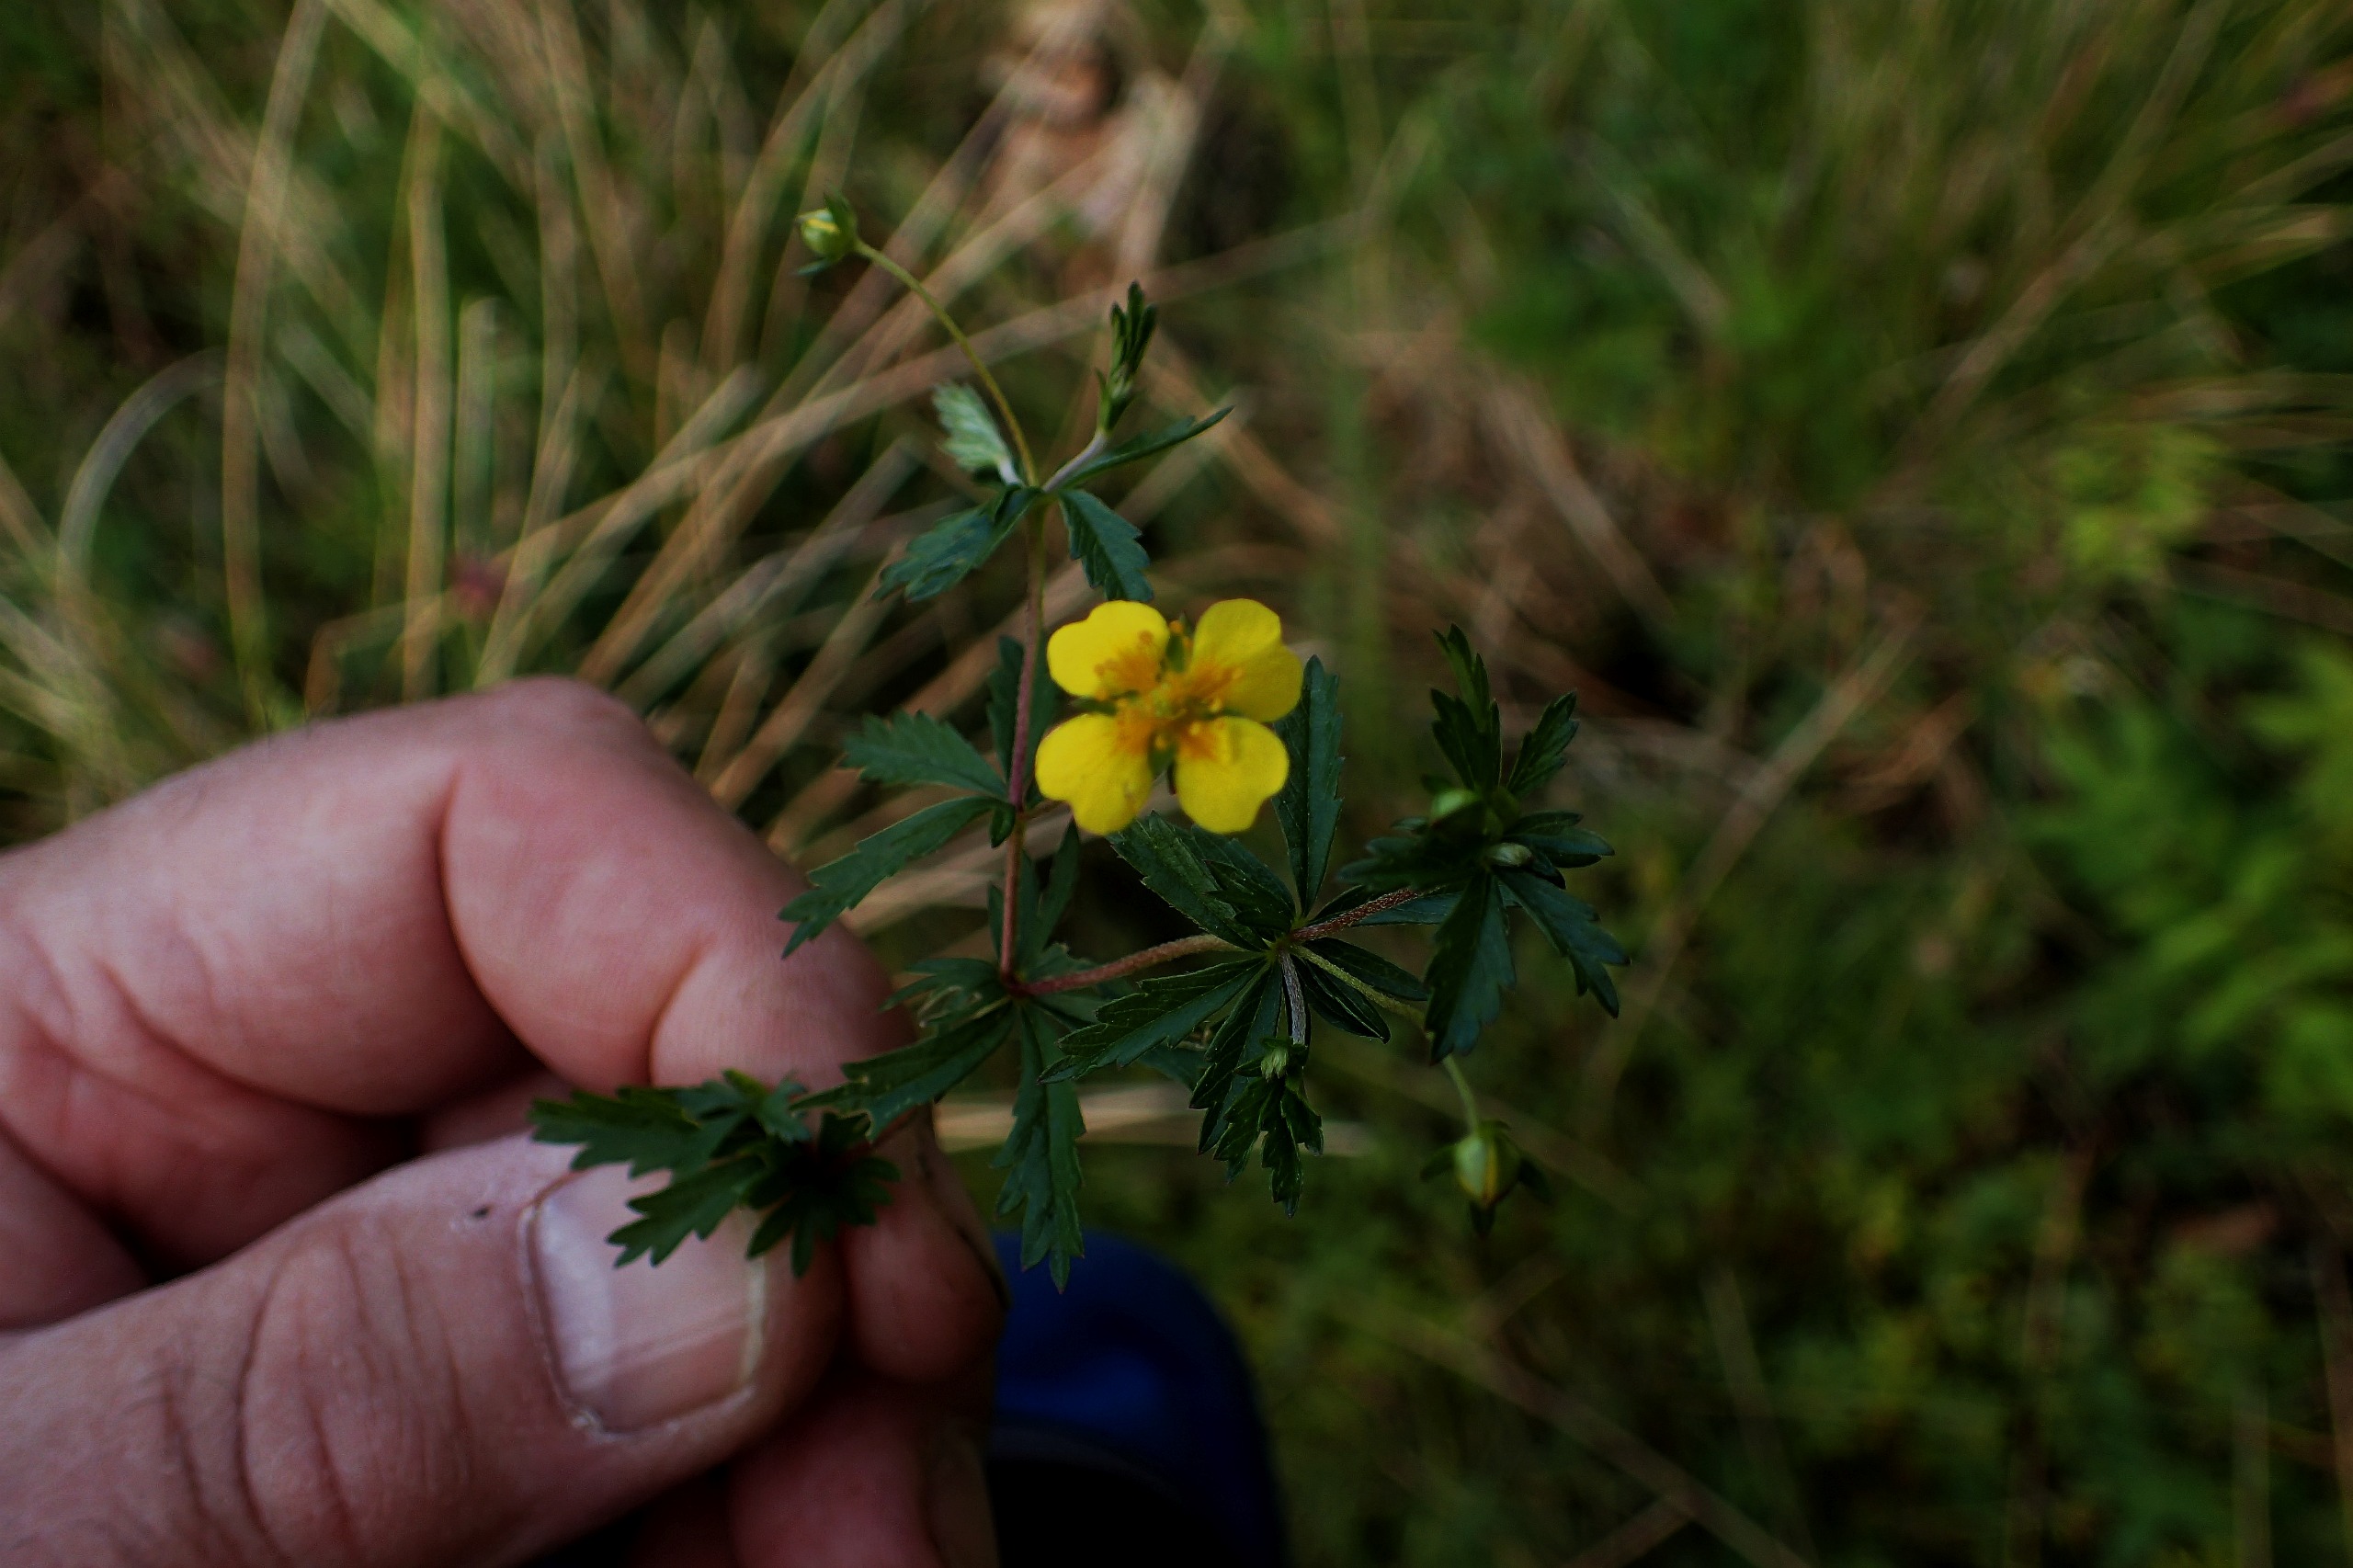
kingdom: Plantae
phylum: Tracheophyta
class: Magnoliopsida
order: Rosales
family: Rosaceae
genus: Potentilla
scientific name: Potentilla erecta
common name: Tormentil
